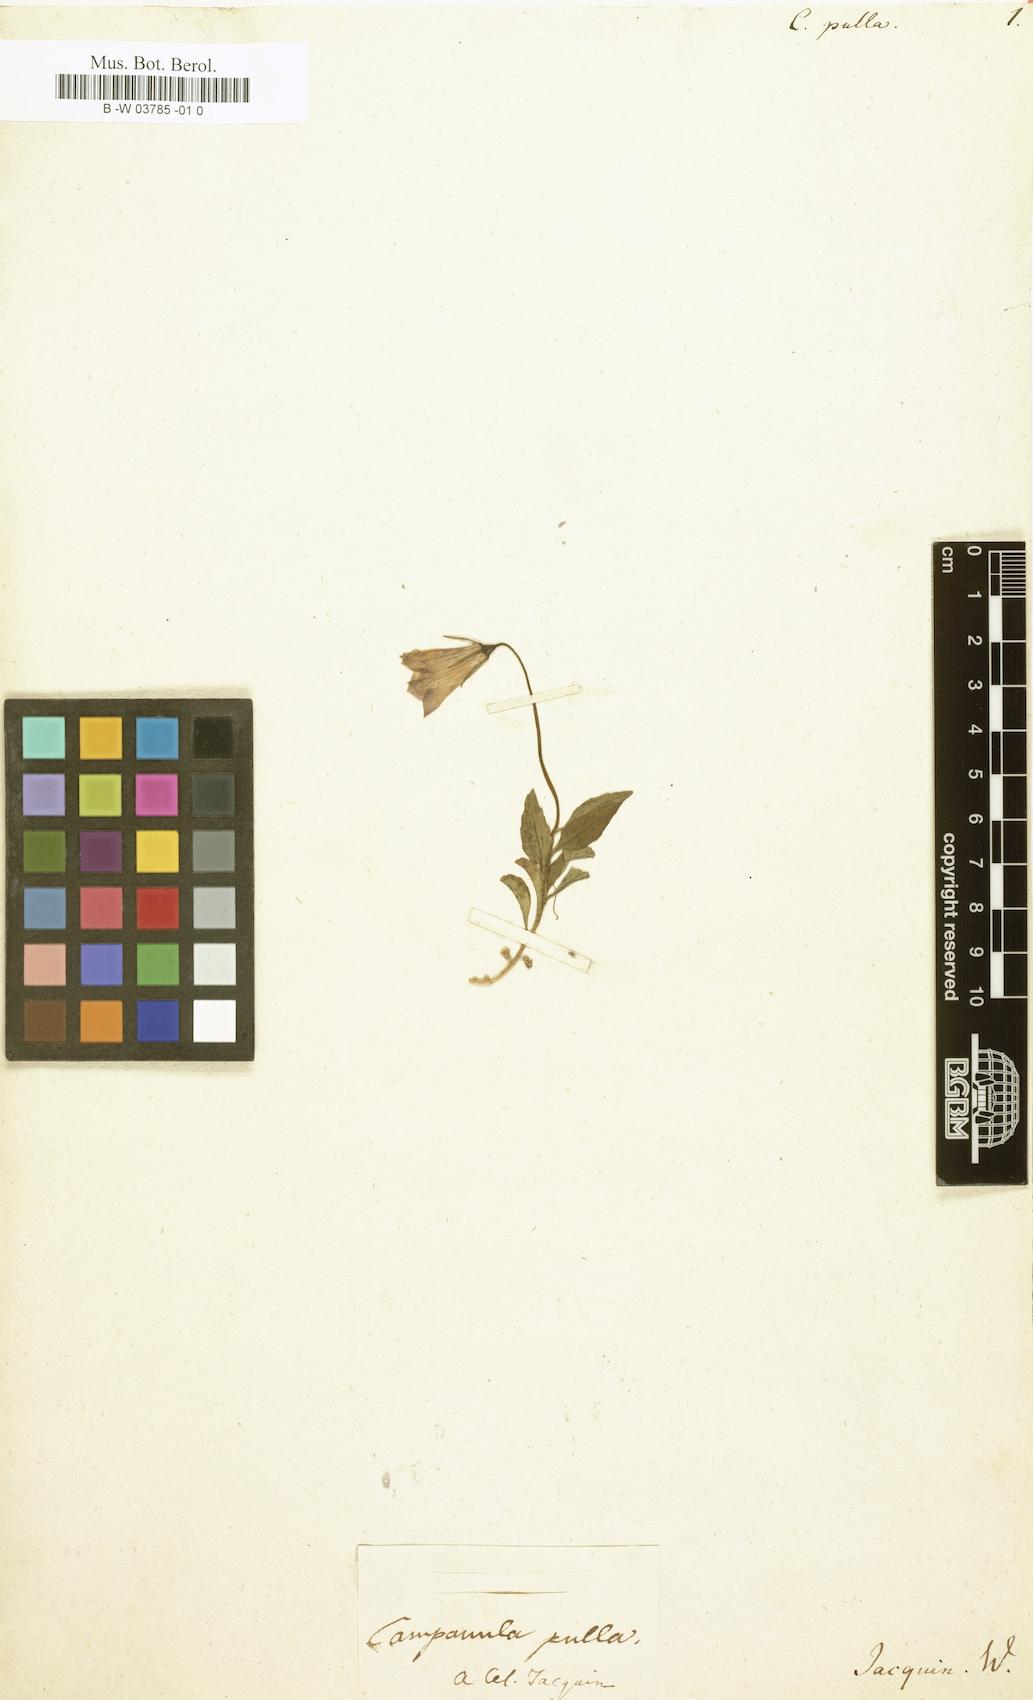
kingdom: Plantae
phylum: Tracheophyta
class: Magnoliopsida
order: Asterales
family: Campanulaceae
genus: Campanula
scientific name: Campanula pulla
